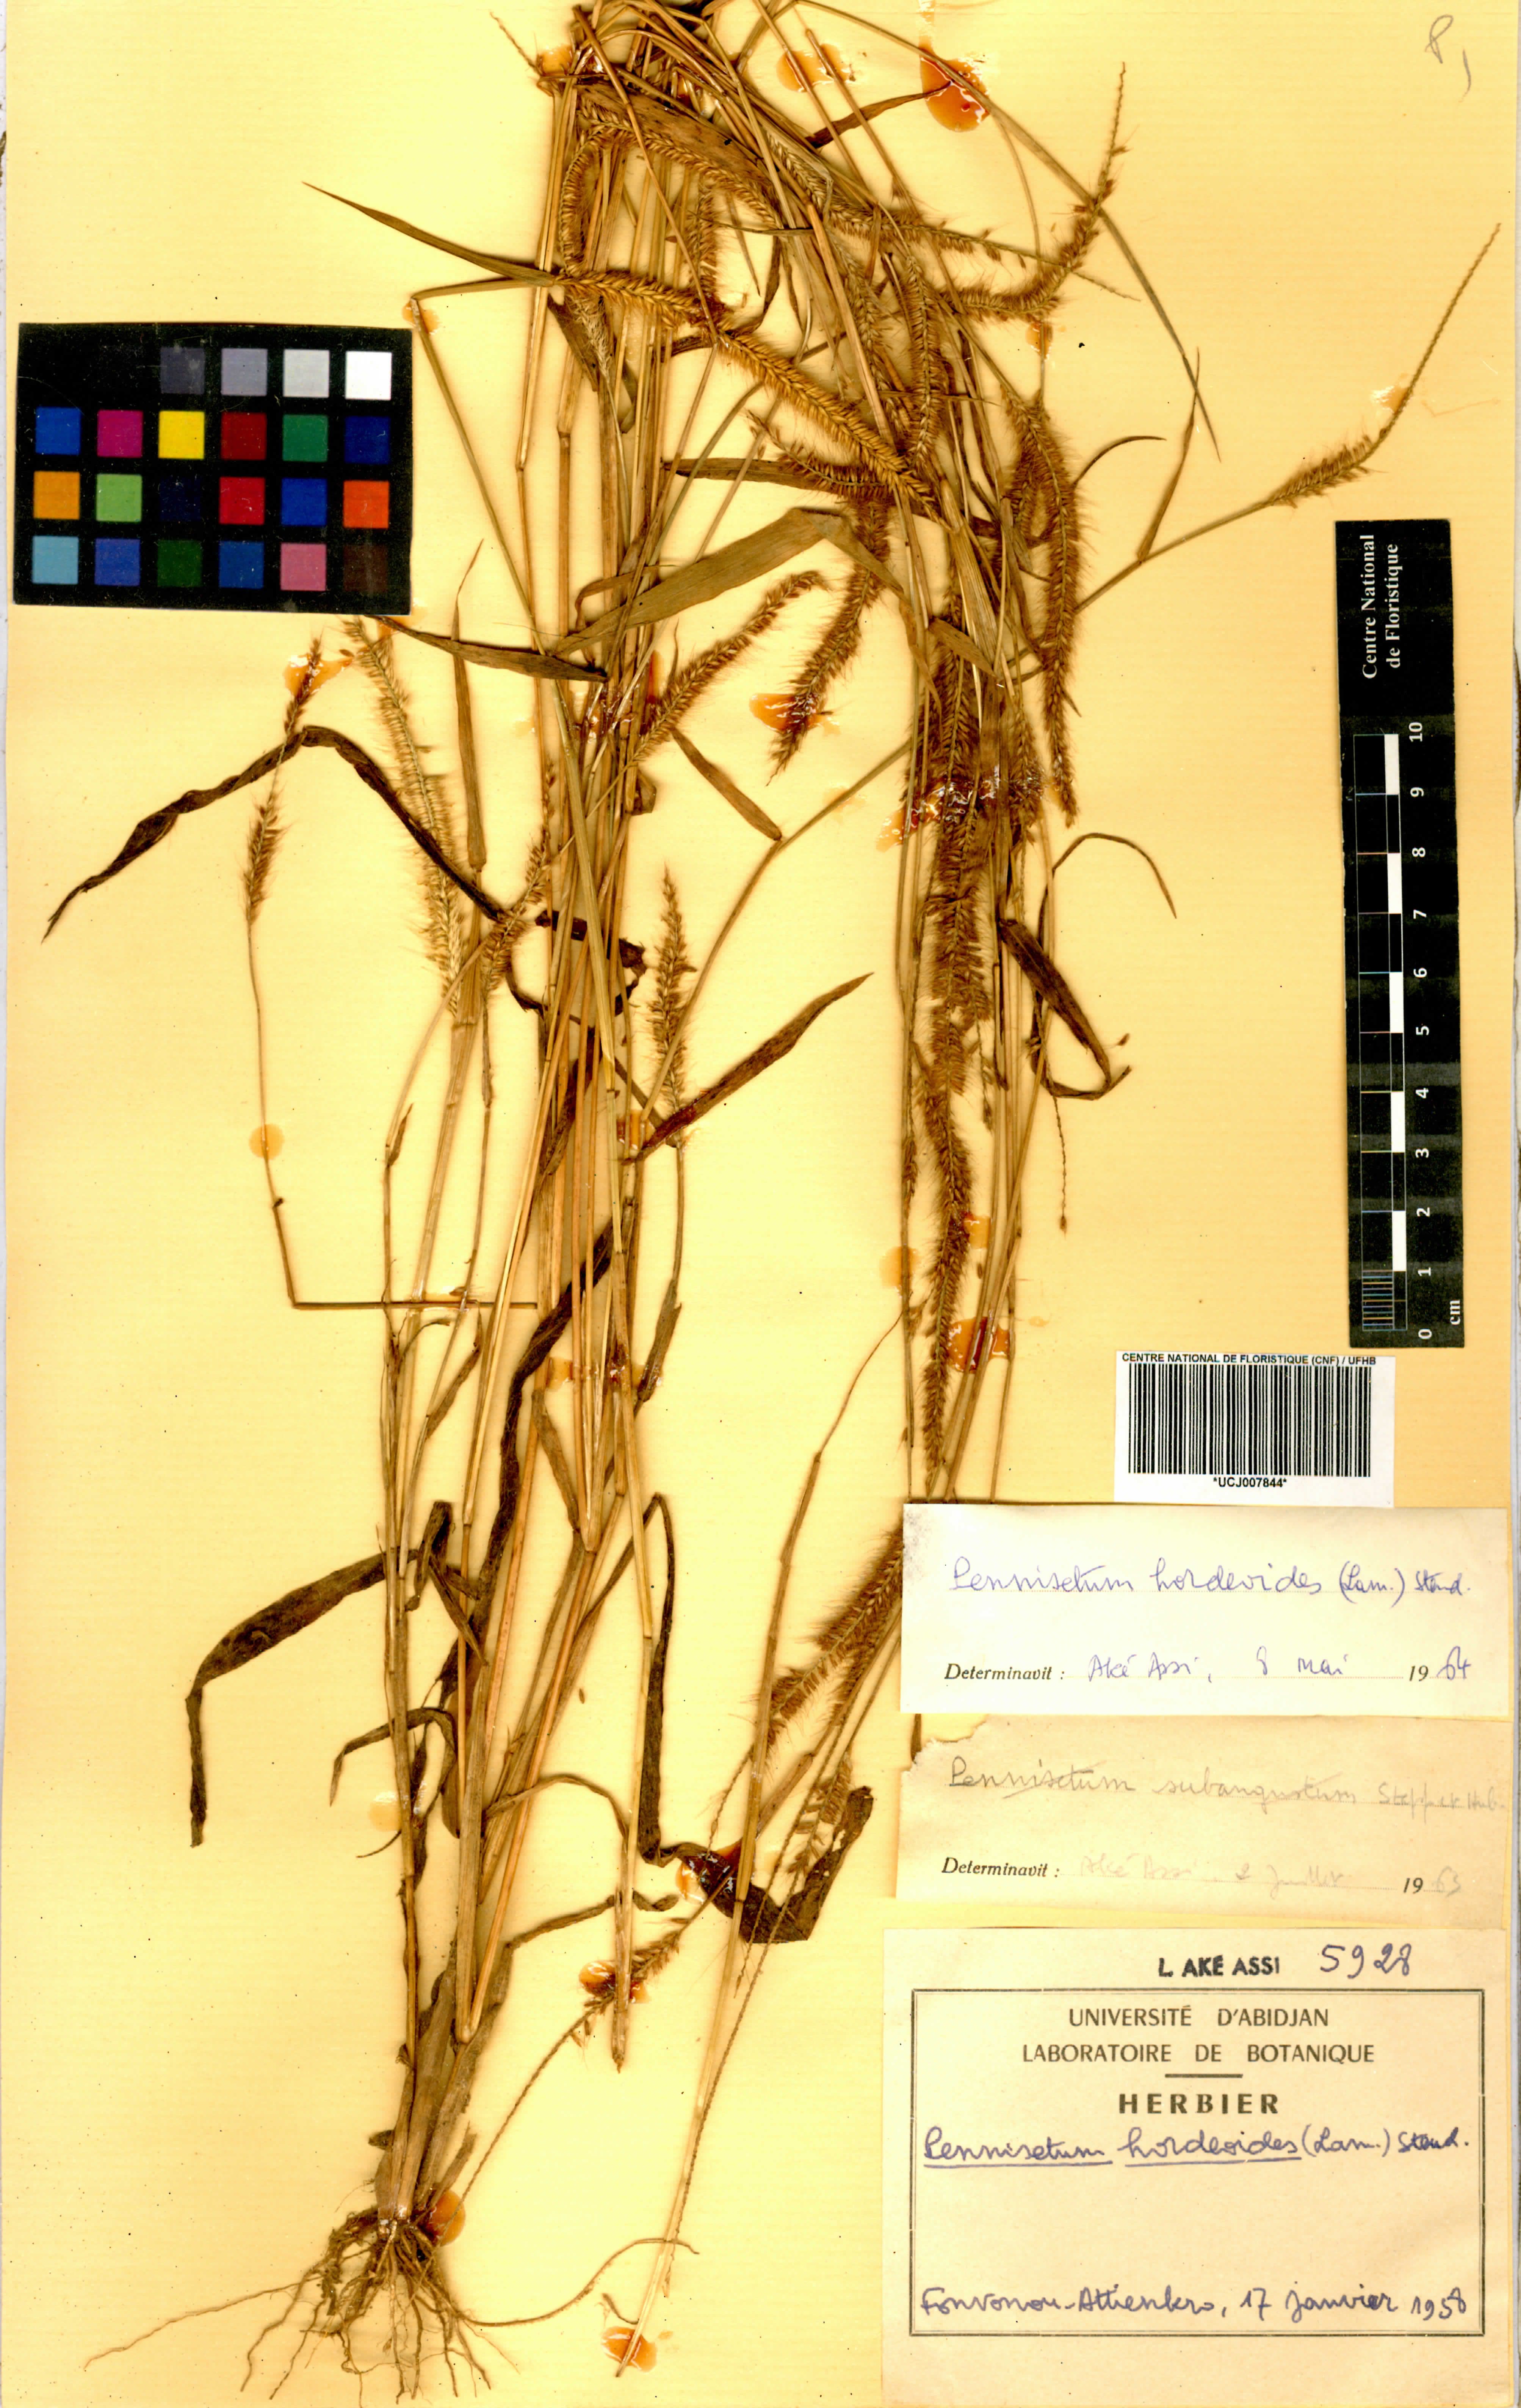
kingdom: Plantae
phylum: Tracheophyta
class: Liliopsida
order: Poales
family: Poaceae
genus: Cenchrus
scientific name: Cenchrus hordeoides
